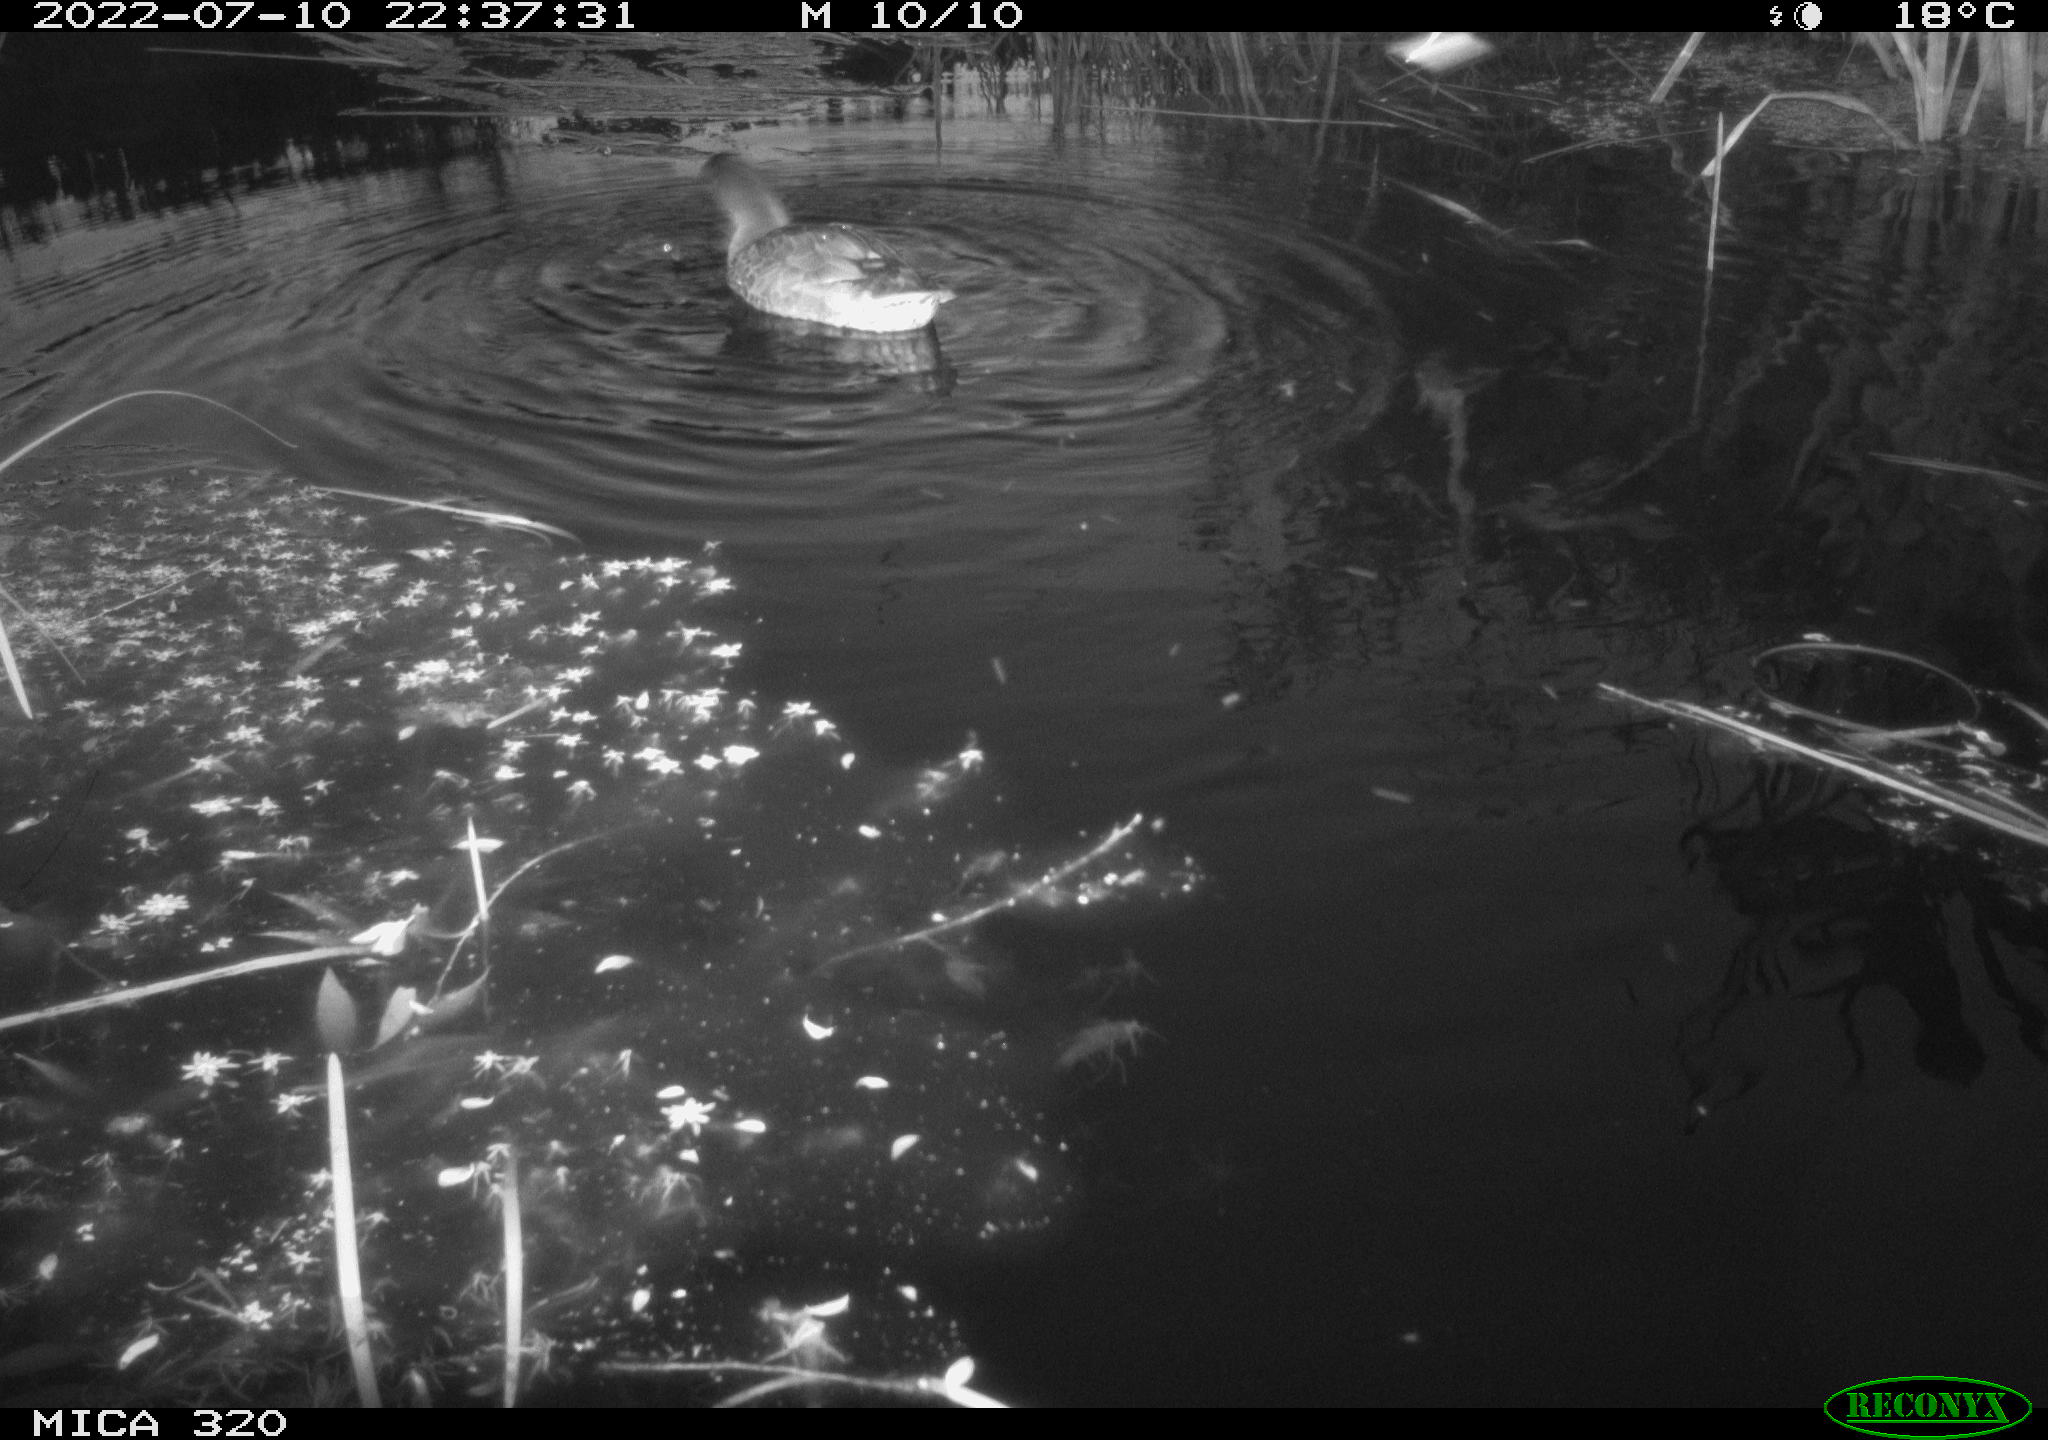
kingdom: Animalia
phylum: Chordata
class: Aves
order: Anseriformes
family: Anatidae
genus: Anas
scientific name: Anas platyrhynchos
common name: Mallard
